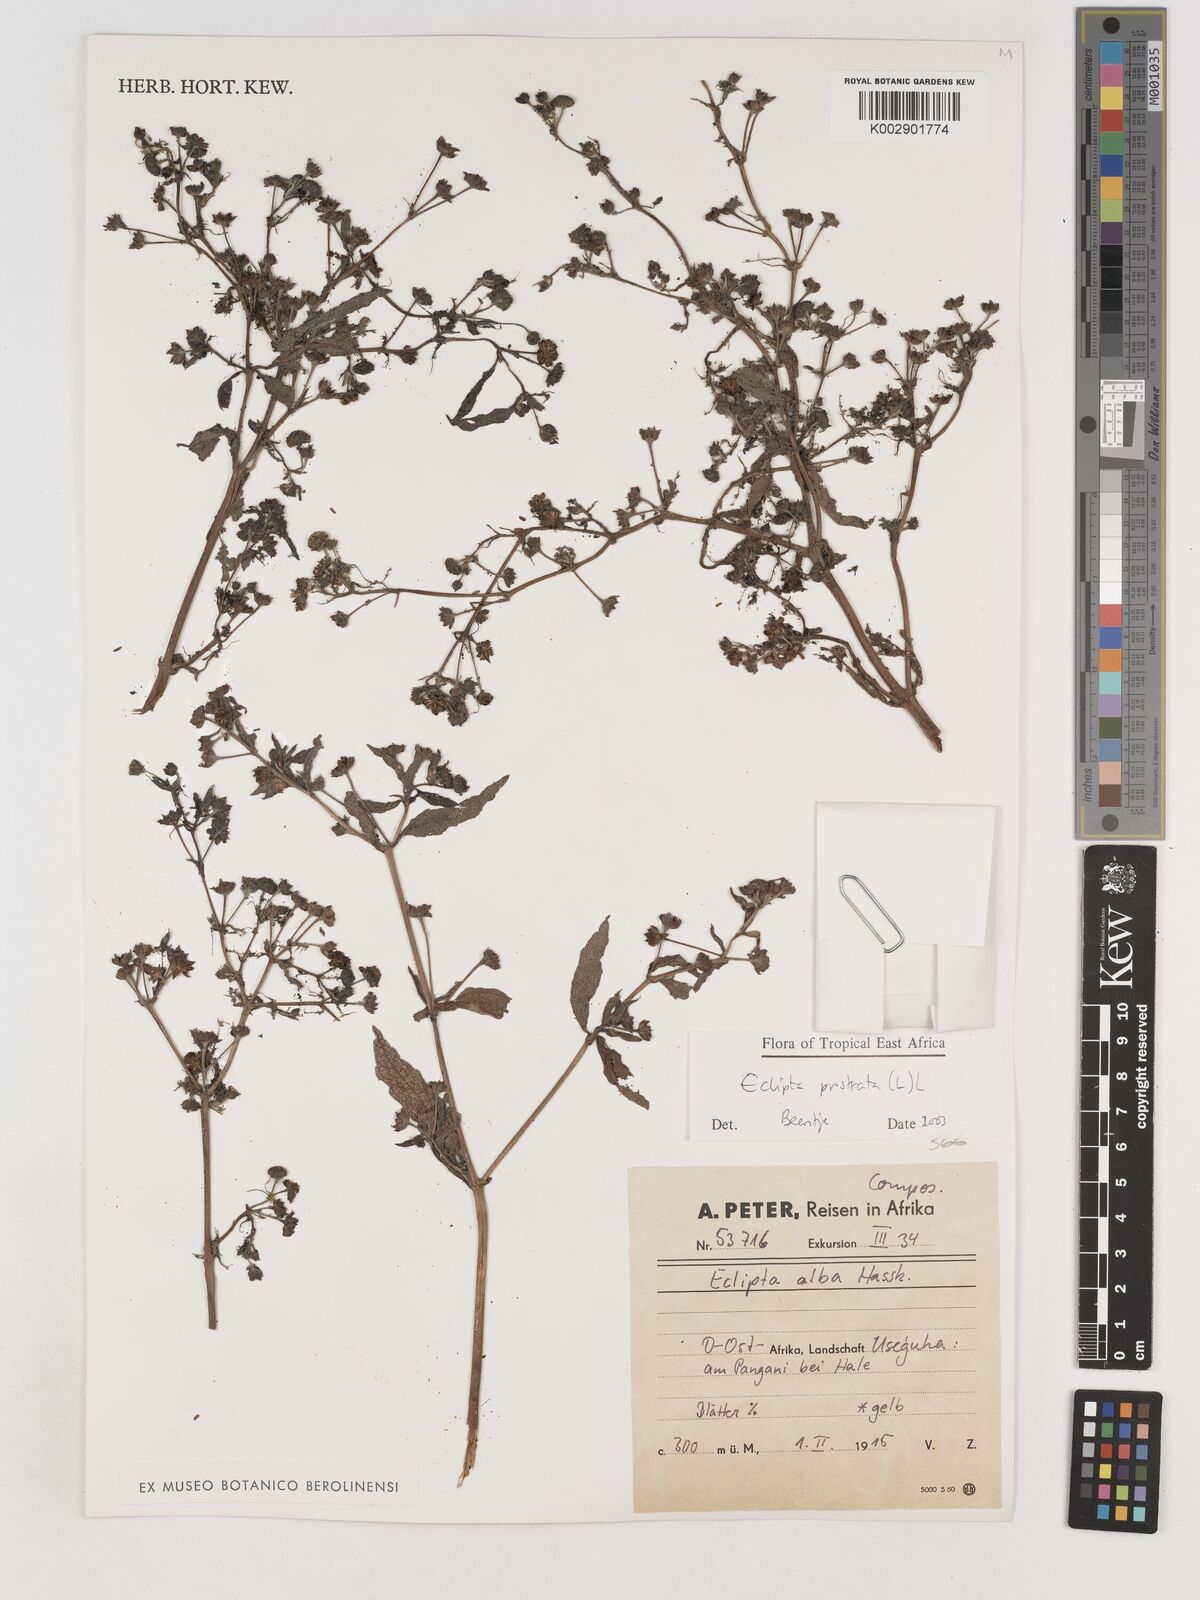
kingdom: Plantae
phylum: Tracheophyta
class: Magnoliopsida
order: Asterales
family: Asteraceae
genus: Eclipta
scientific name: Eclipta alba
